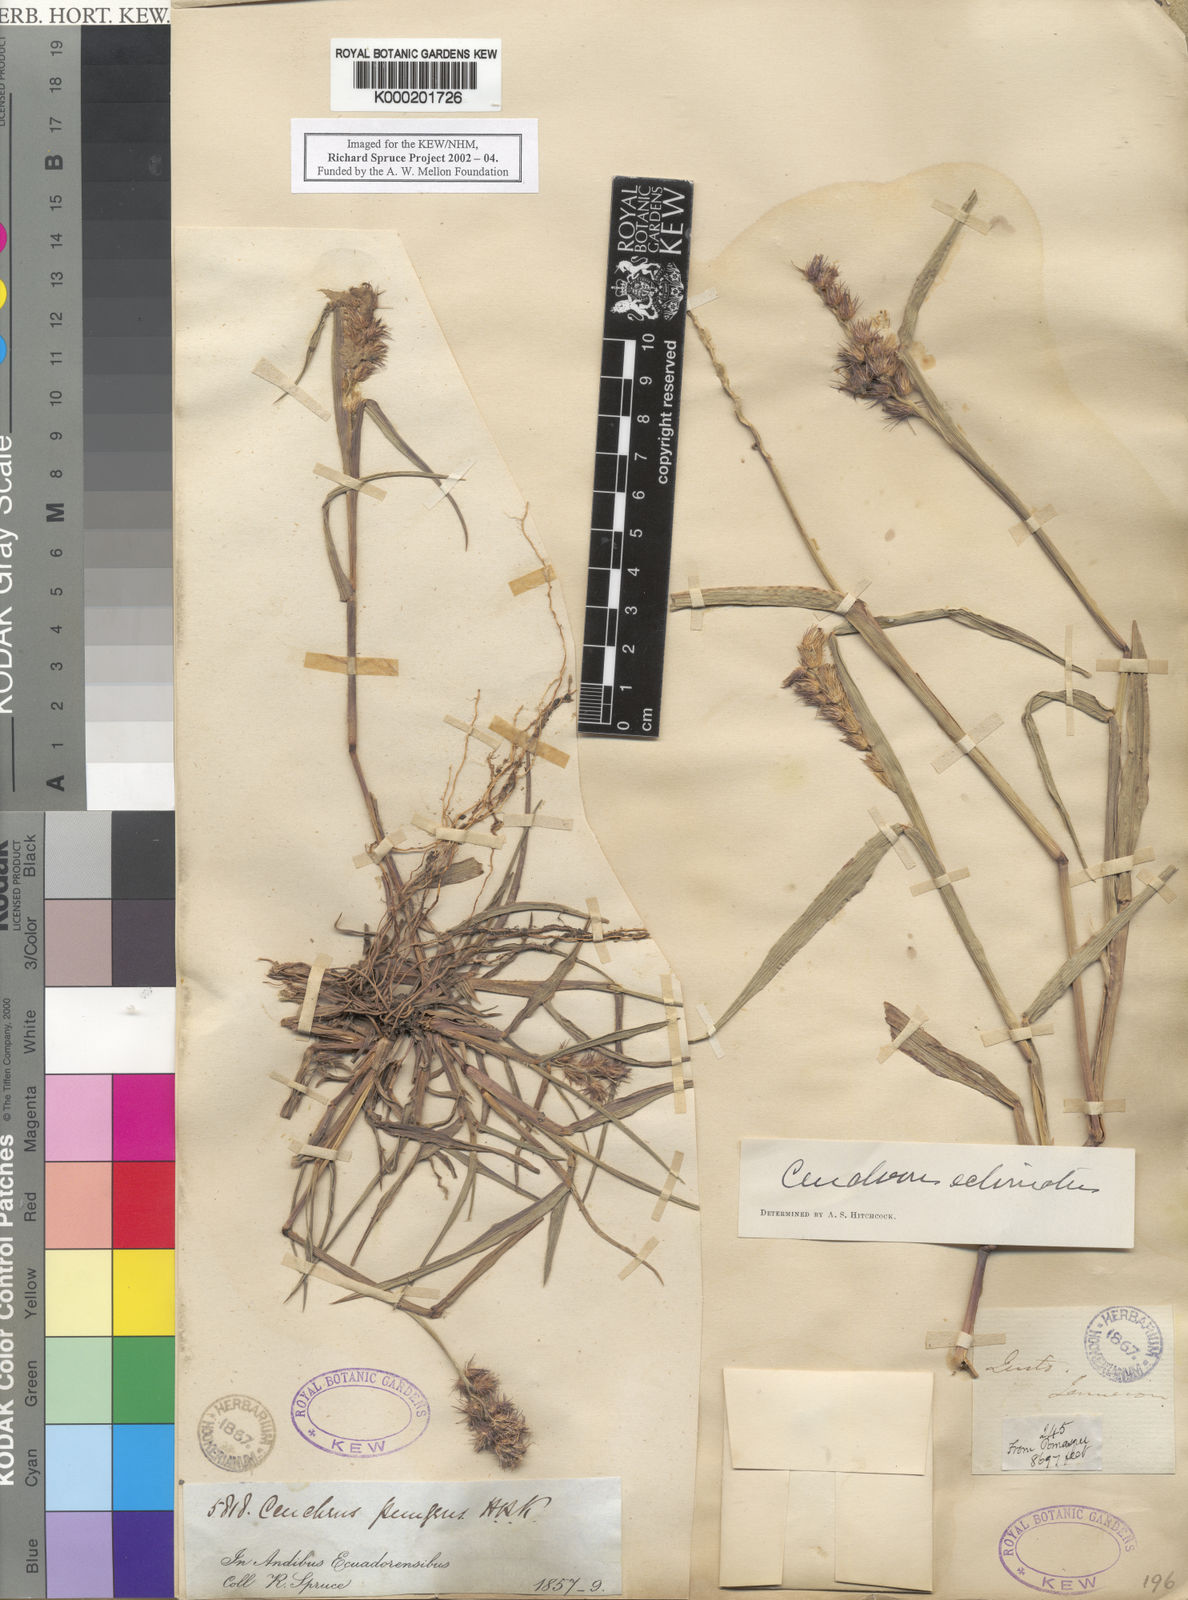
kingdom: Plantae
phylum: Tracheophyta
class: Liliopsida
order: Poales
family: Poaceae
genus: Cenchrus
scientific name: Cenchrus echinatus
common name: Southern sandbur
